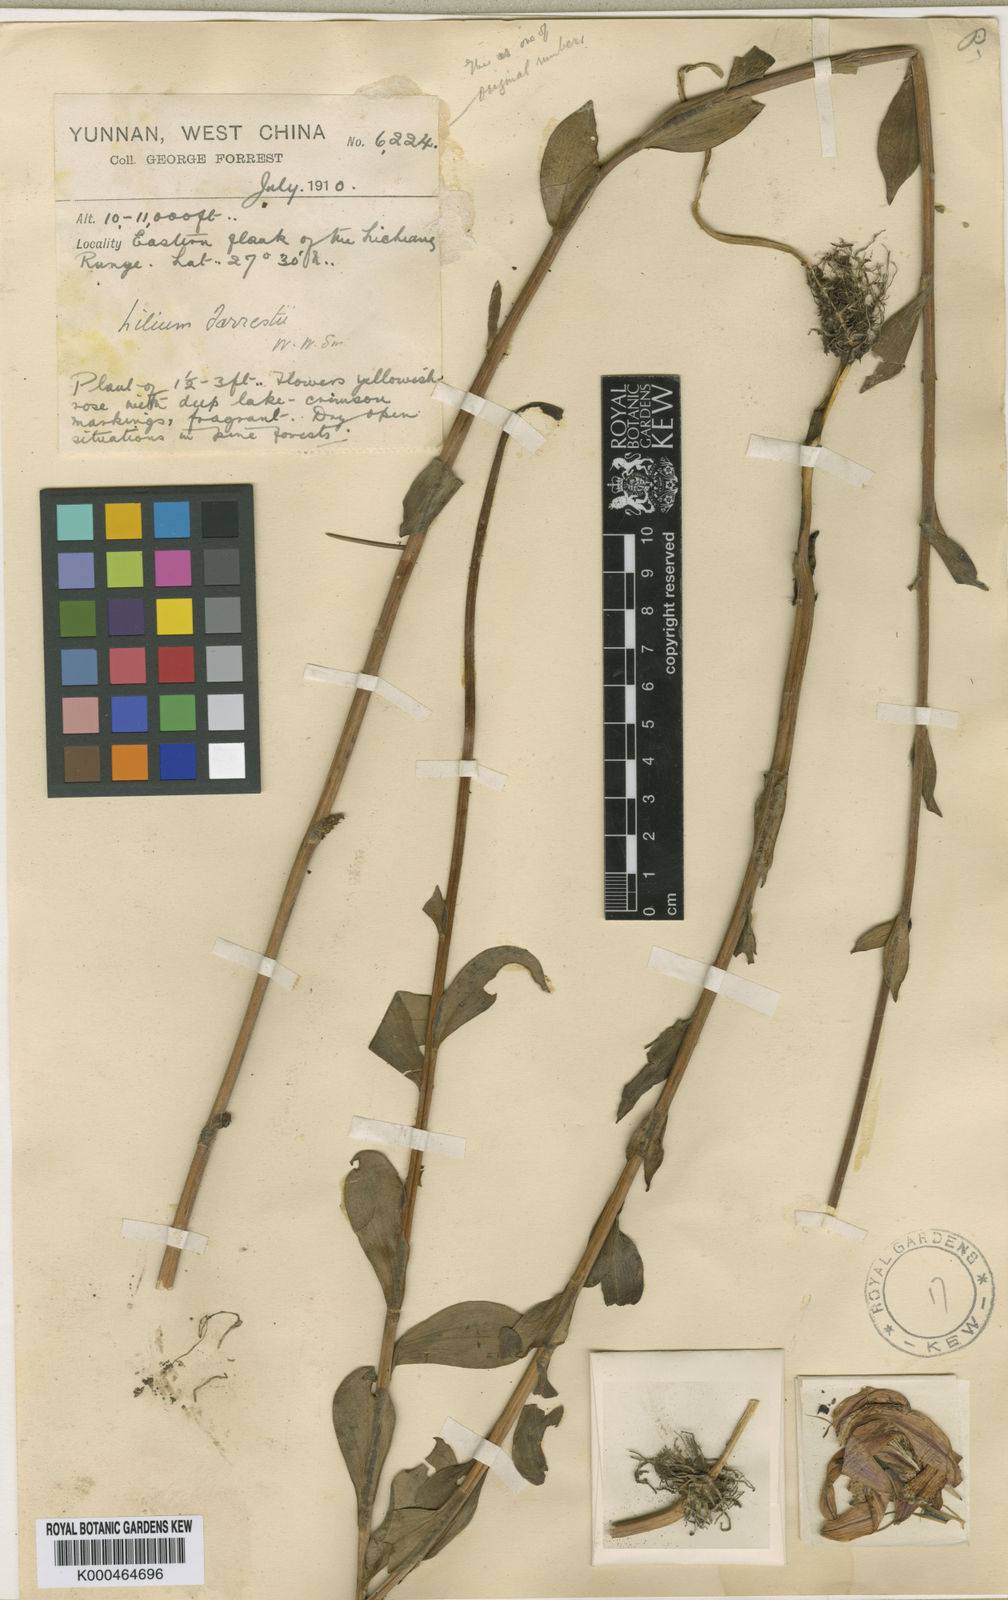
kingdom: Plantae
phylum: Tracheophyta
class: Liliopsida
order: Liliales
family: Liliaceae
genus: Lilium
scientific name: Lilium
